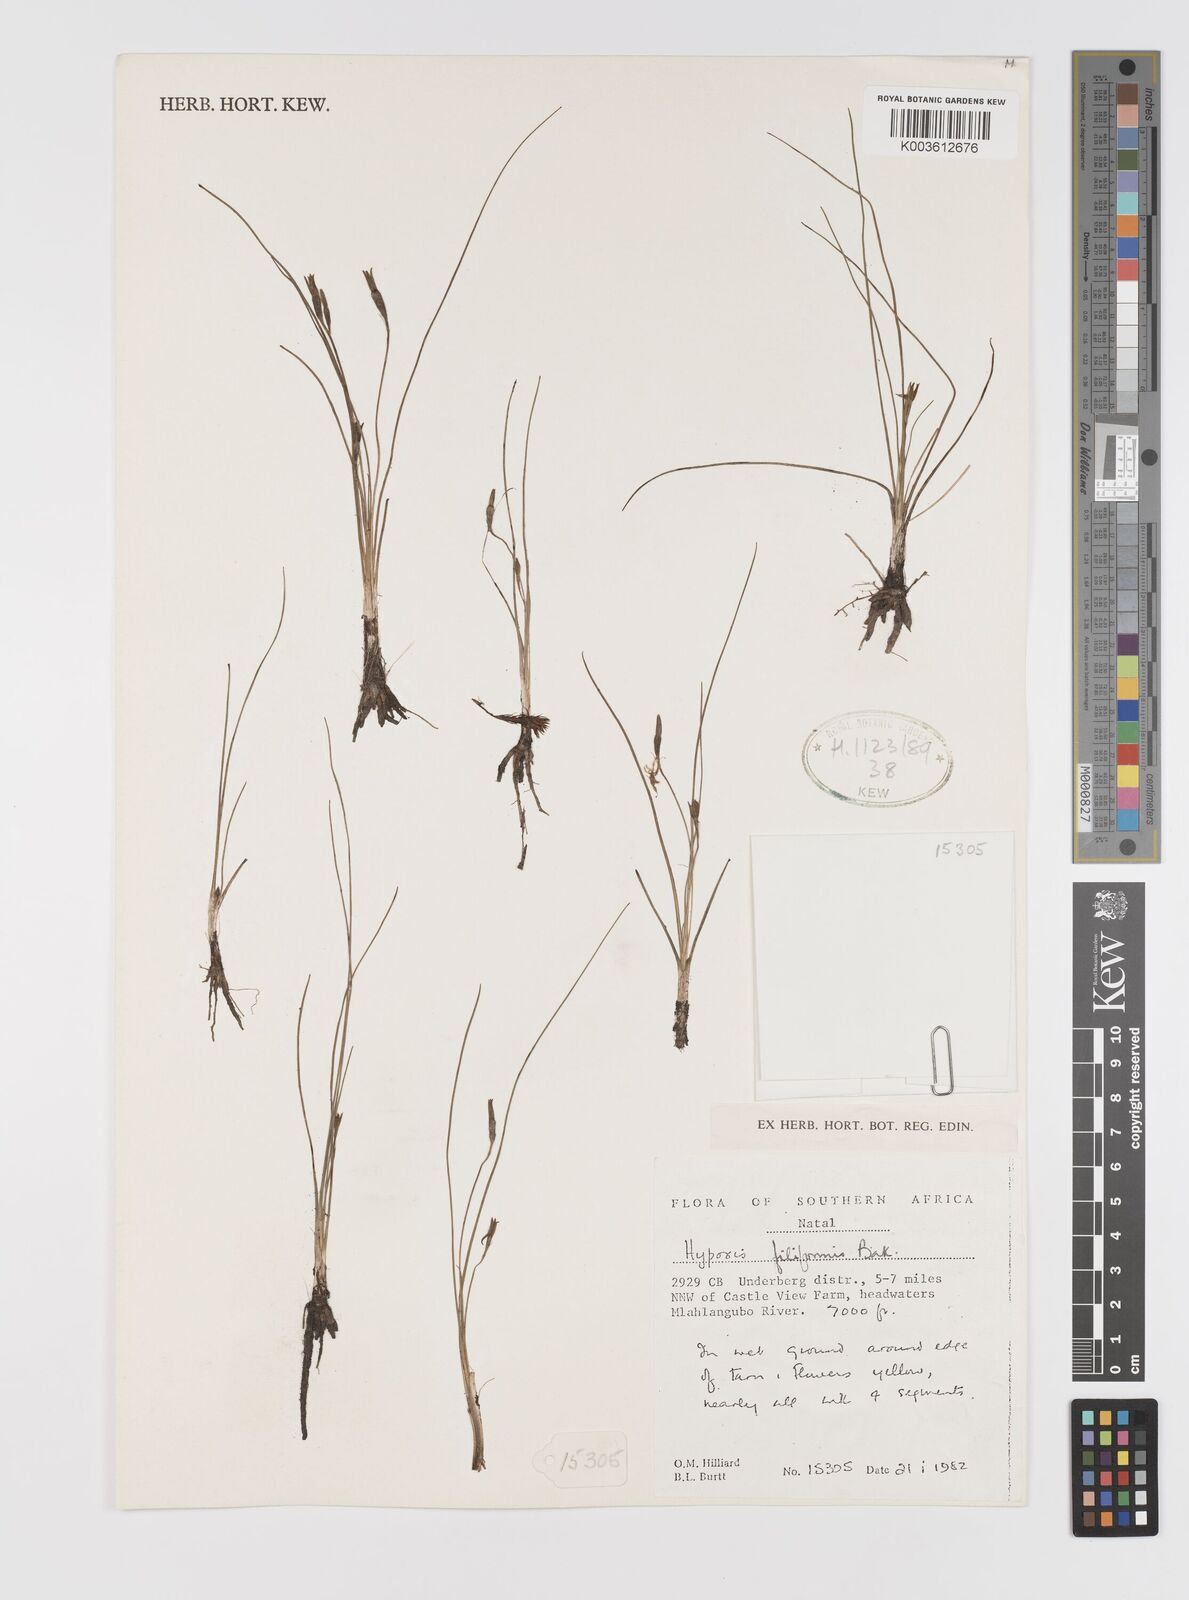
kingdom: Plantae
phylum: Tracheophyta
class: Liliopsida
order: Asparagales
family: Hypoxidaceae
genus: Hypoxis
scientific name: Hypoxis filiformis
